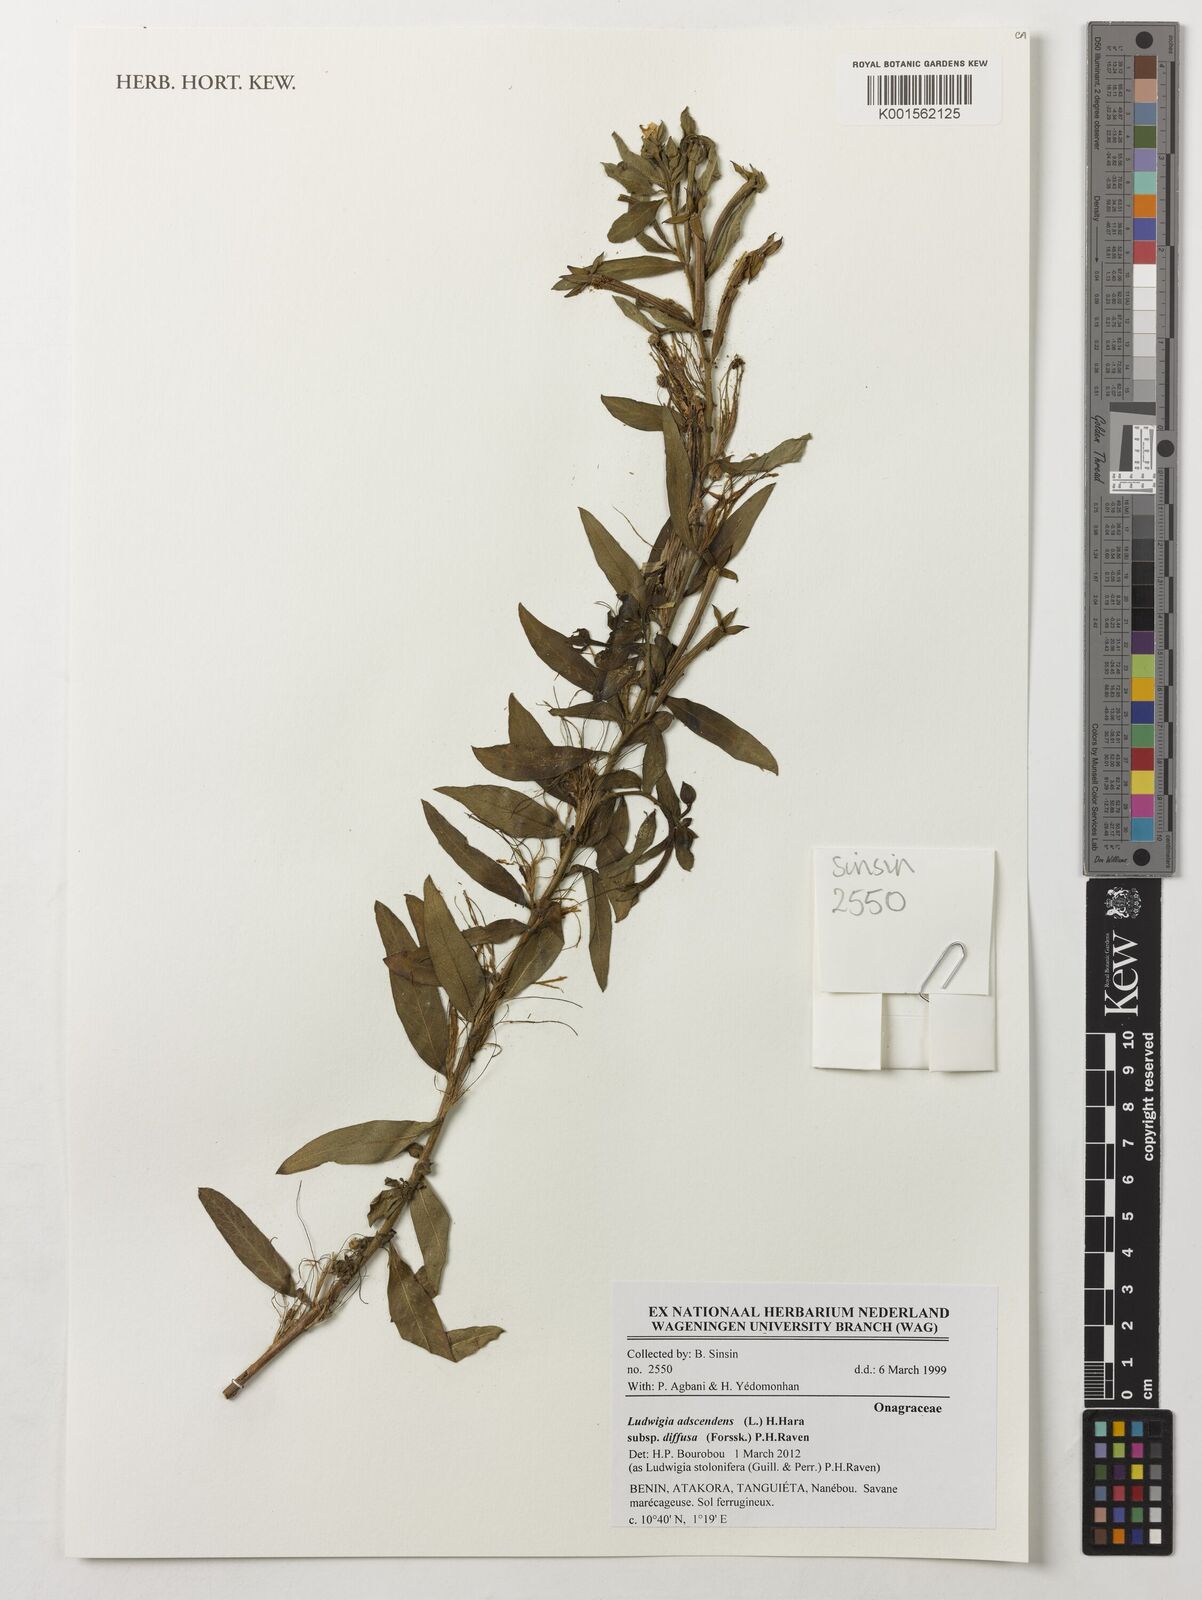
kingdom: Plantae
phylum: Tracheophyta
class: Magnoliopsida
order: Myrtales
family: Onagraceae
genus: Ludwigia
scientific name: Ludwigia adscendens
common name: Creeping water primrose
